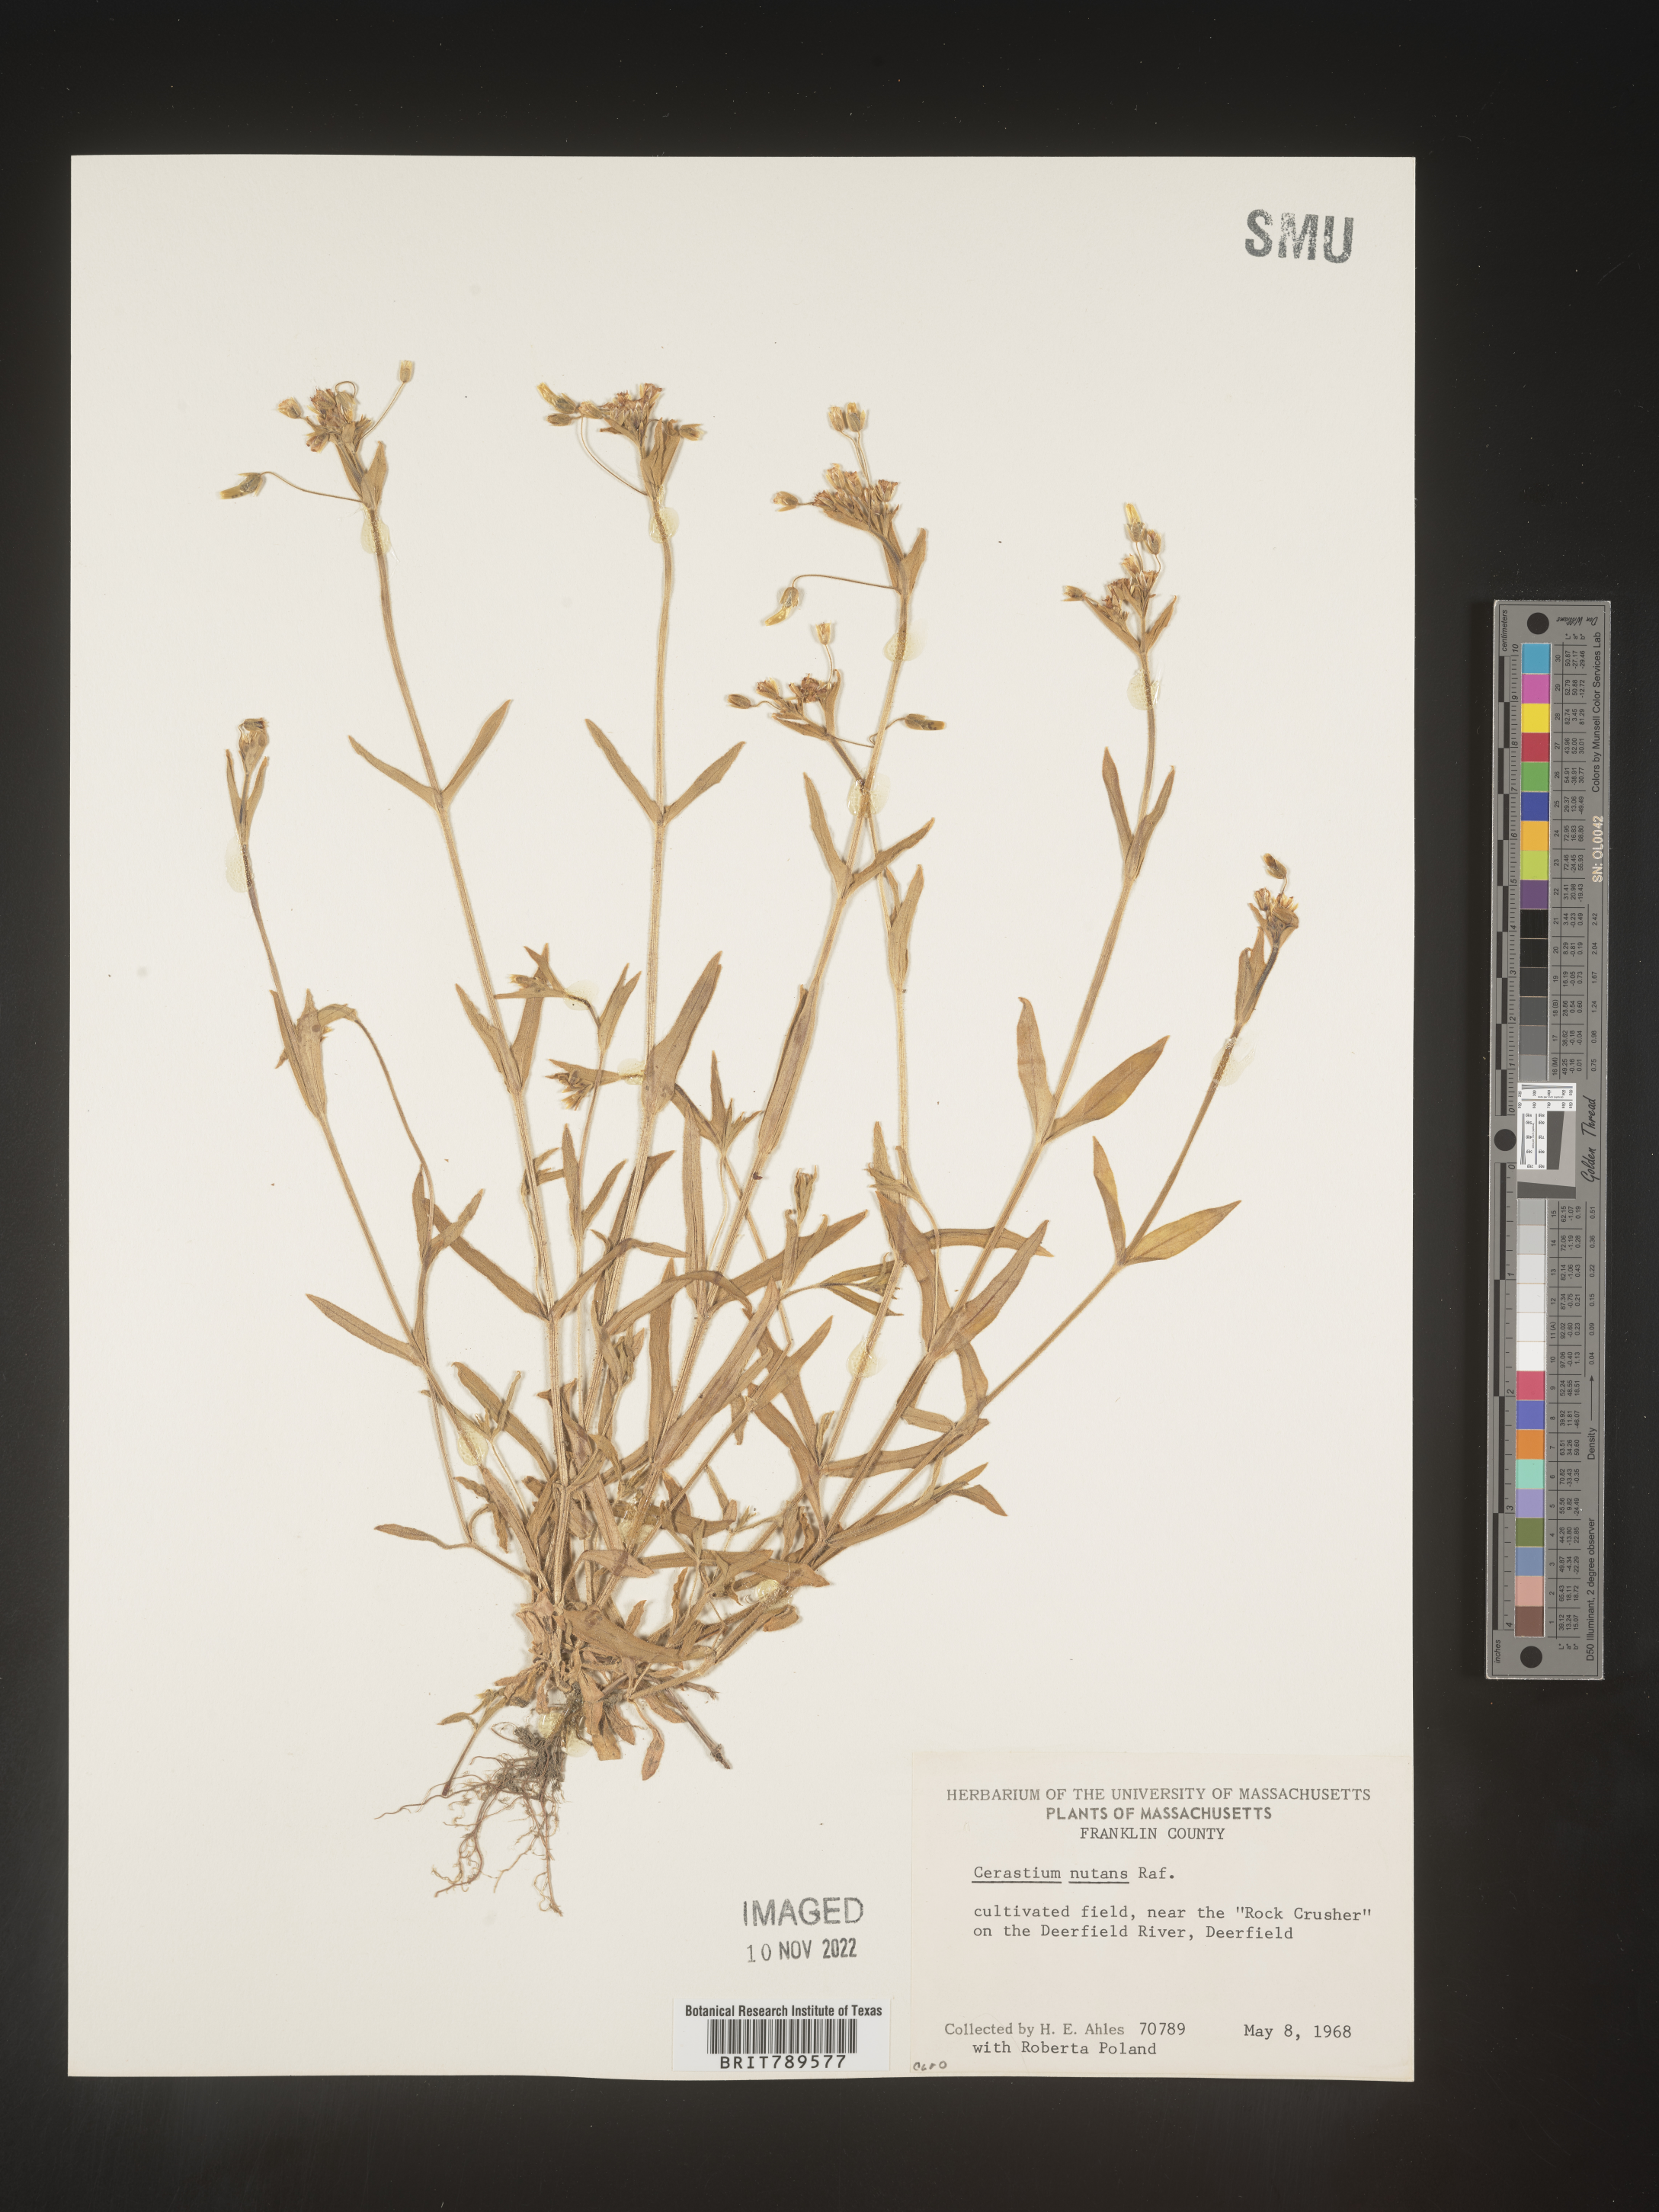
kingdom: Plantae
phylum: Tracheophyta
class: Magnoliopsida
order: Caryophyllales
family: Caryophyllaceae
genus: Cerastium
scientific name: Cerastium nutans
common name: Long-stalked chickweed
